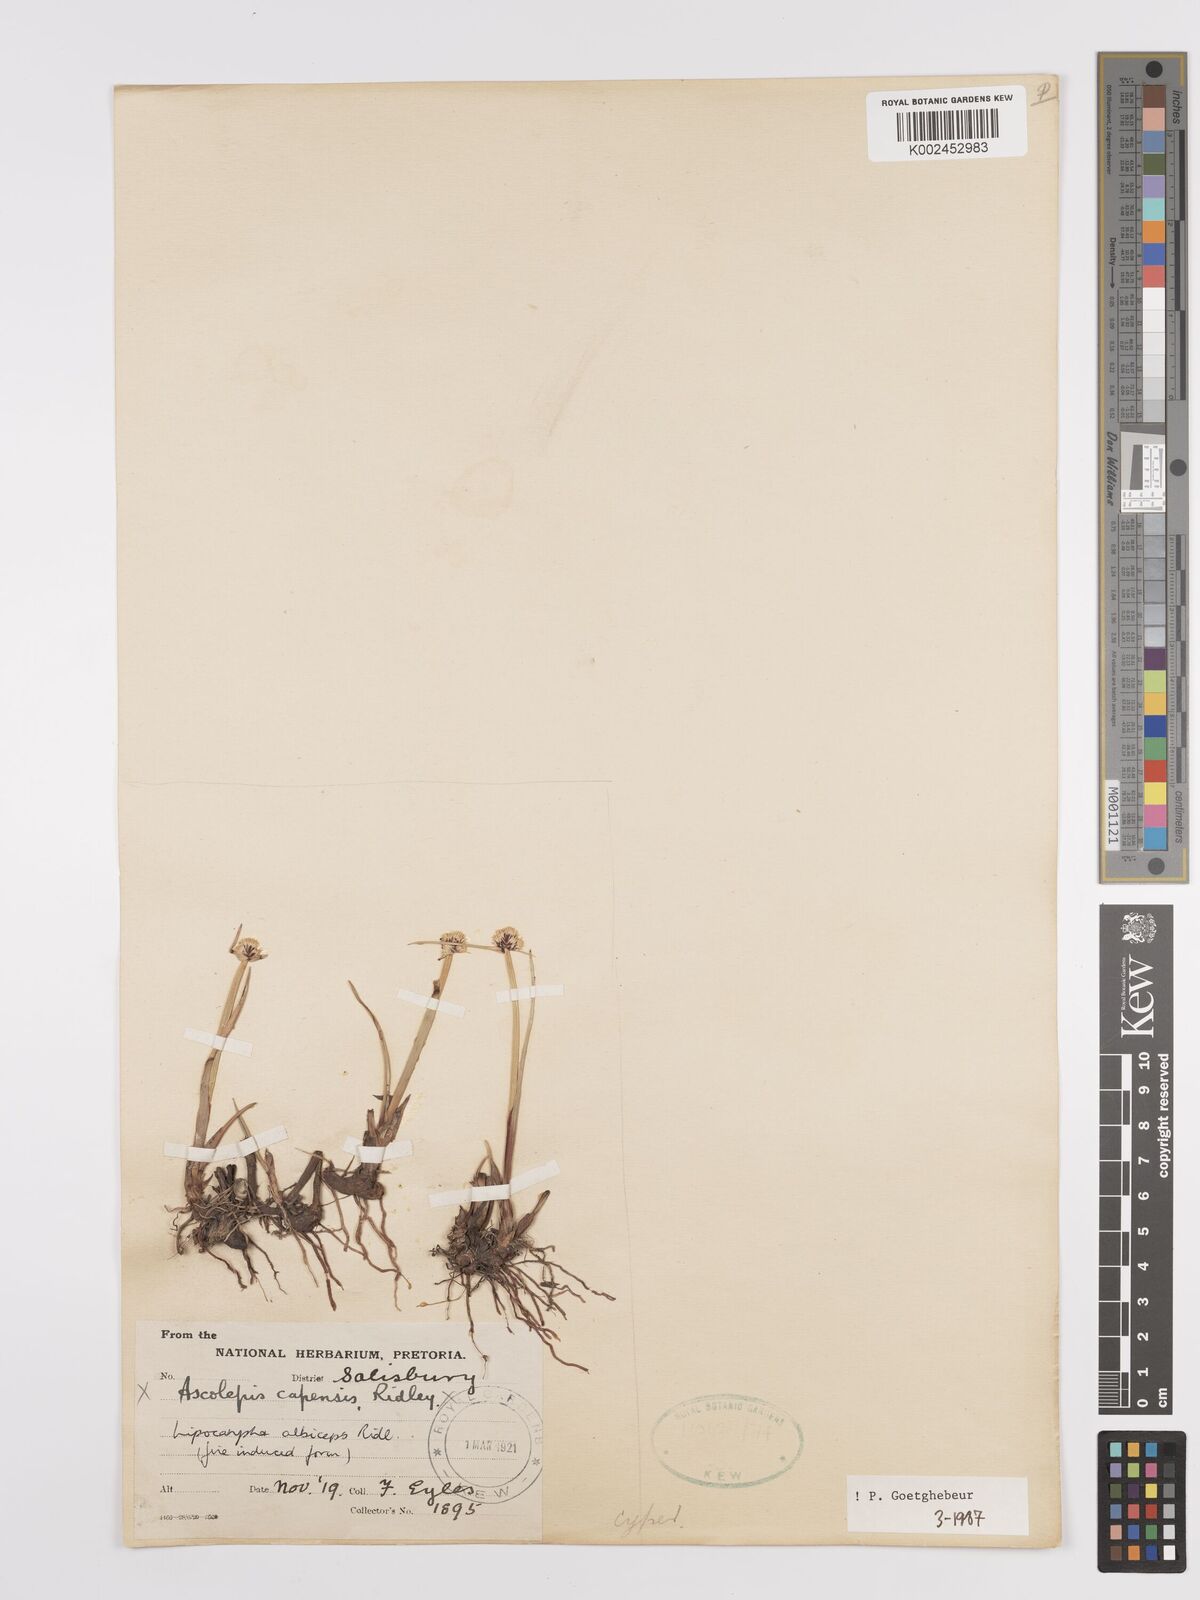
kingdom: Plantae
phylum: Tracheophyta
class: Liliopsida
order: Poales
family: Cyperaceae
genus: Cyperus
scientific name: Cyperus albiceps
